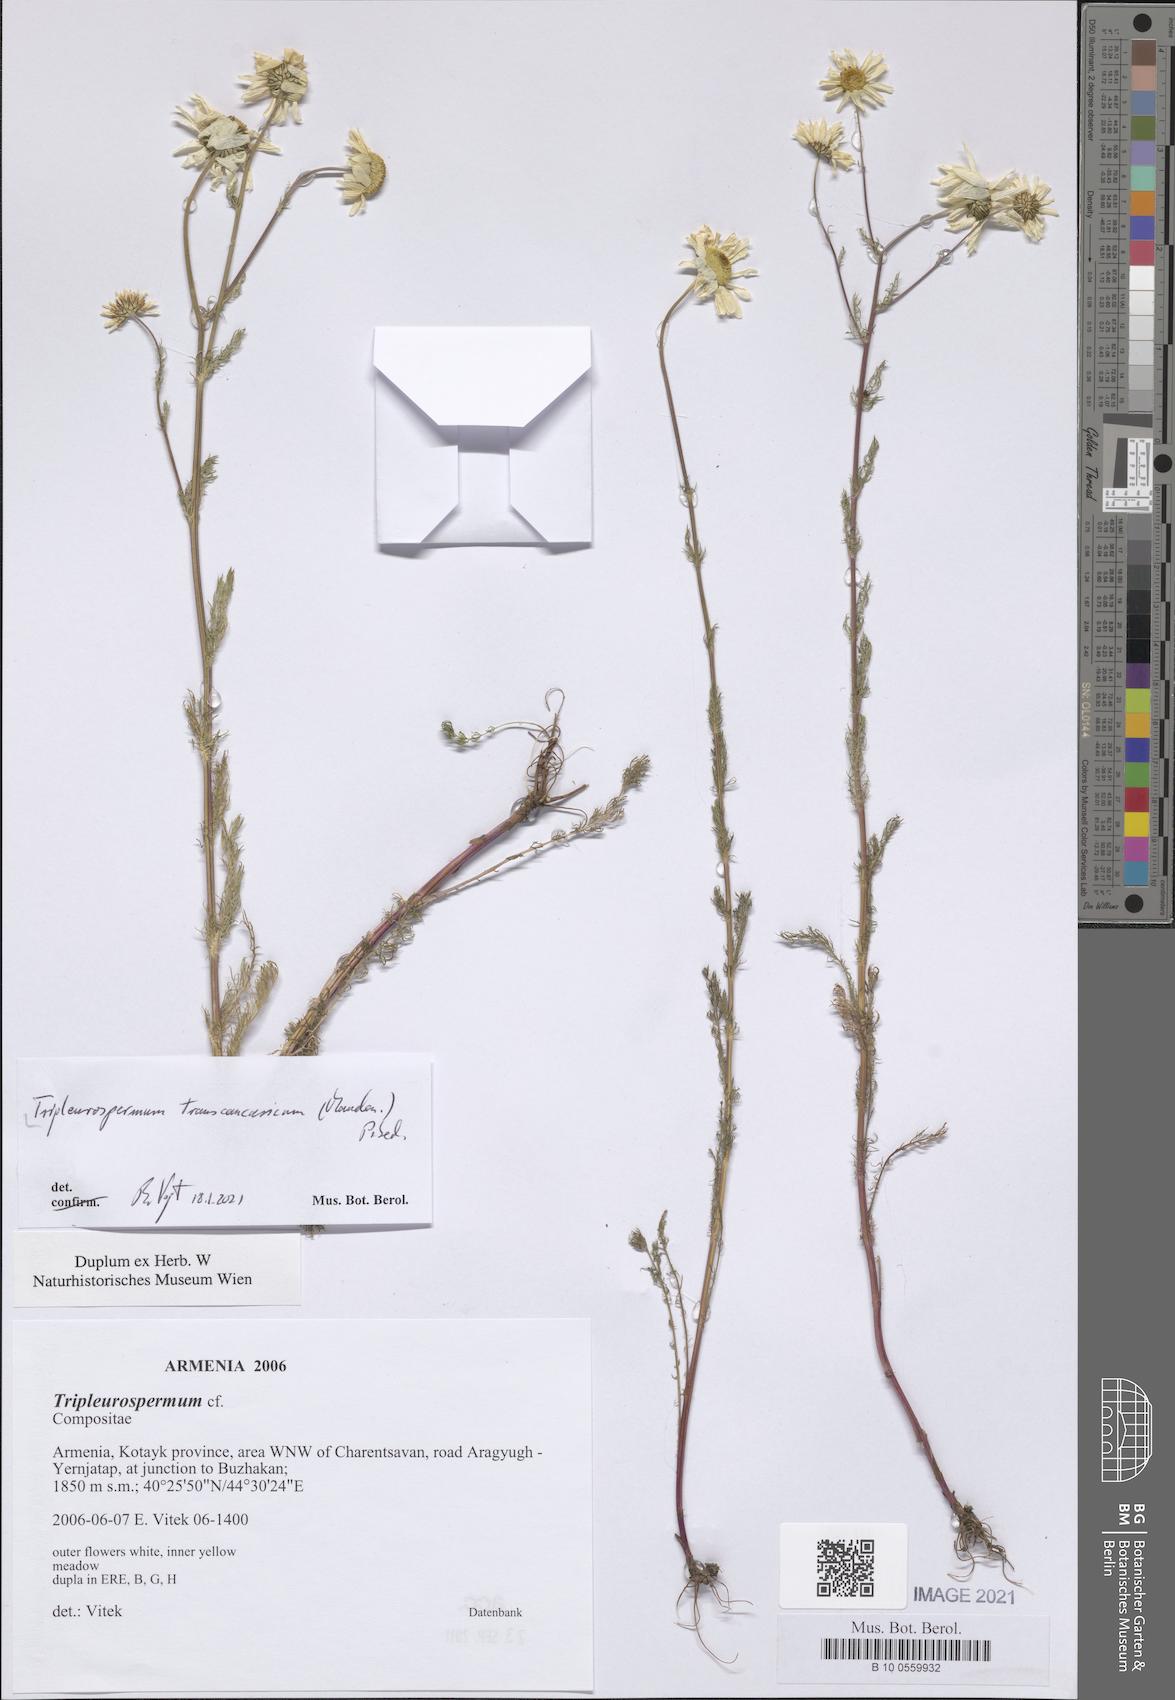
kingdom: Plantae
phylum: Tracheophyta
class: Magnoliopsida
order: Asterales
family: Asteraceae
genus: Tripleurospermum
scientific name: Tripleurospermum transcaucasicum
